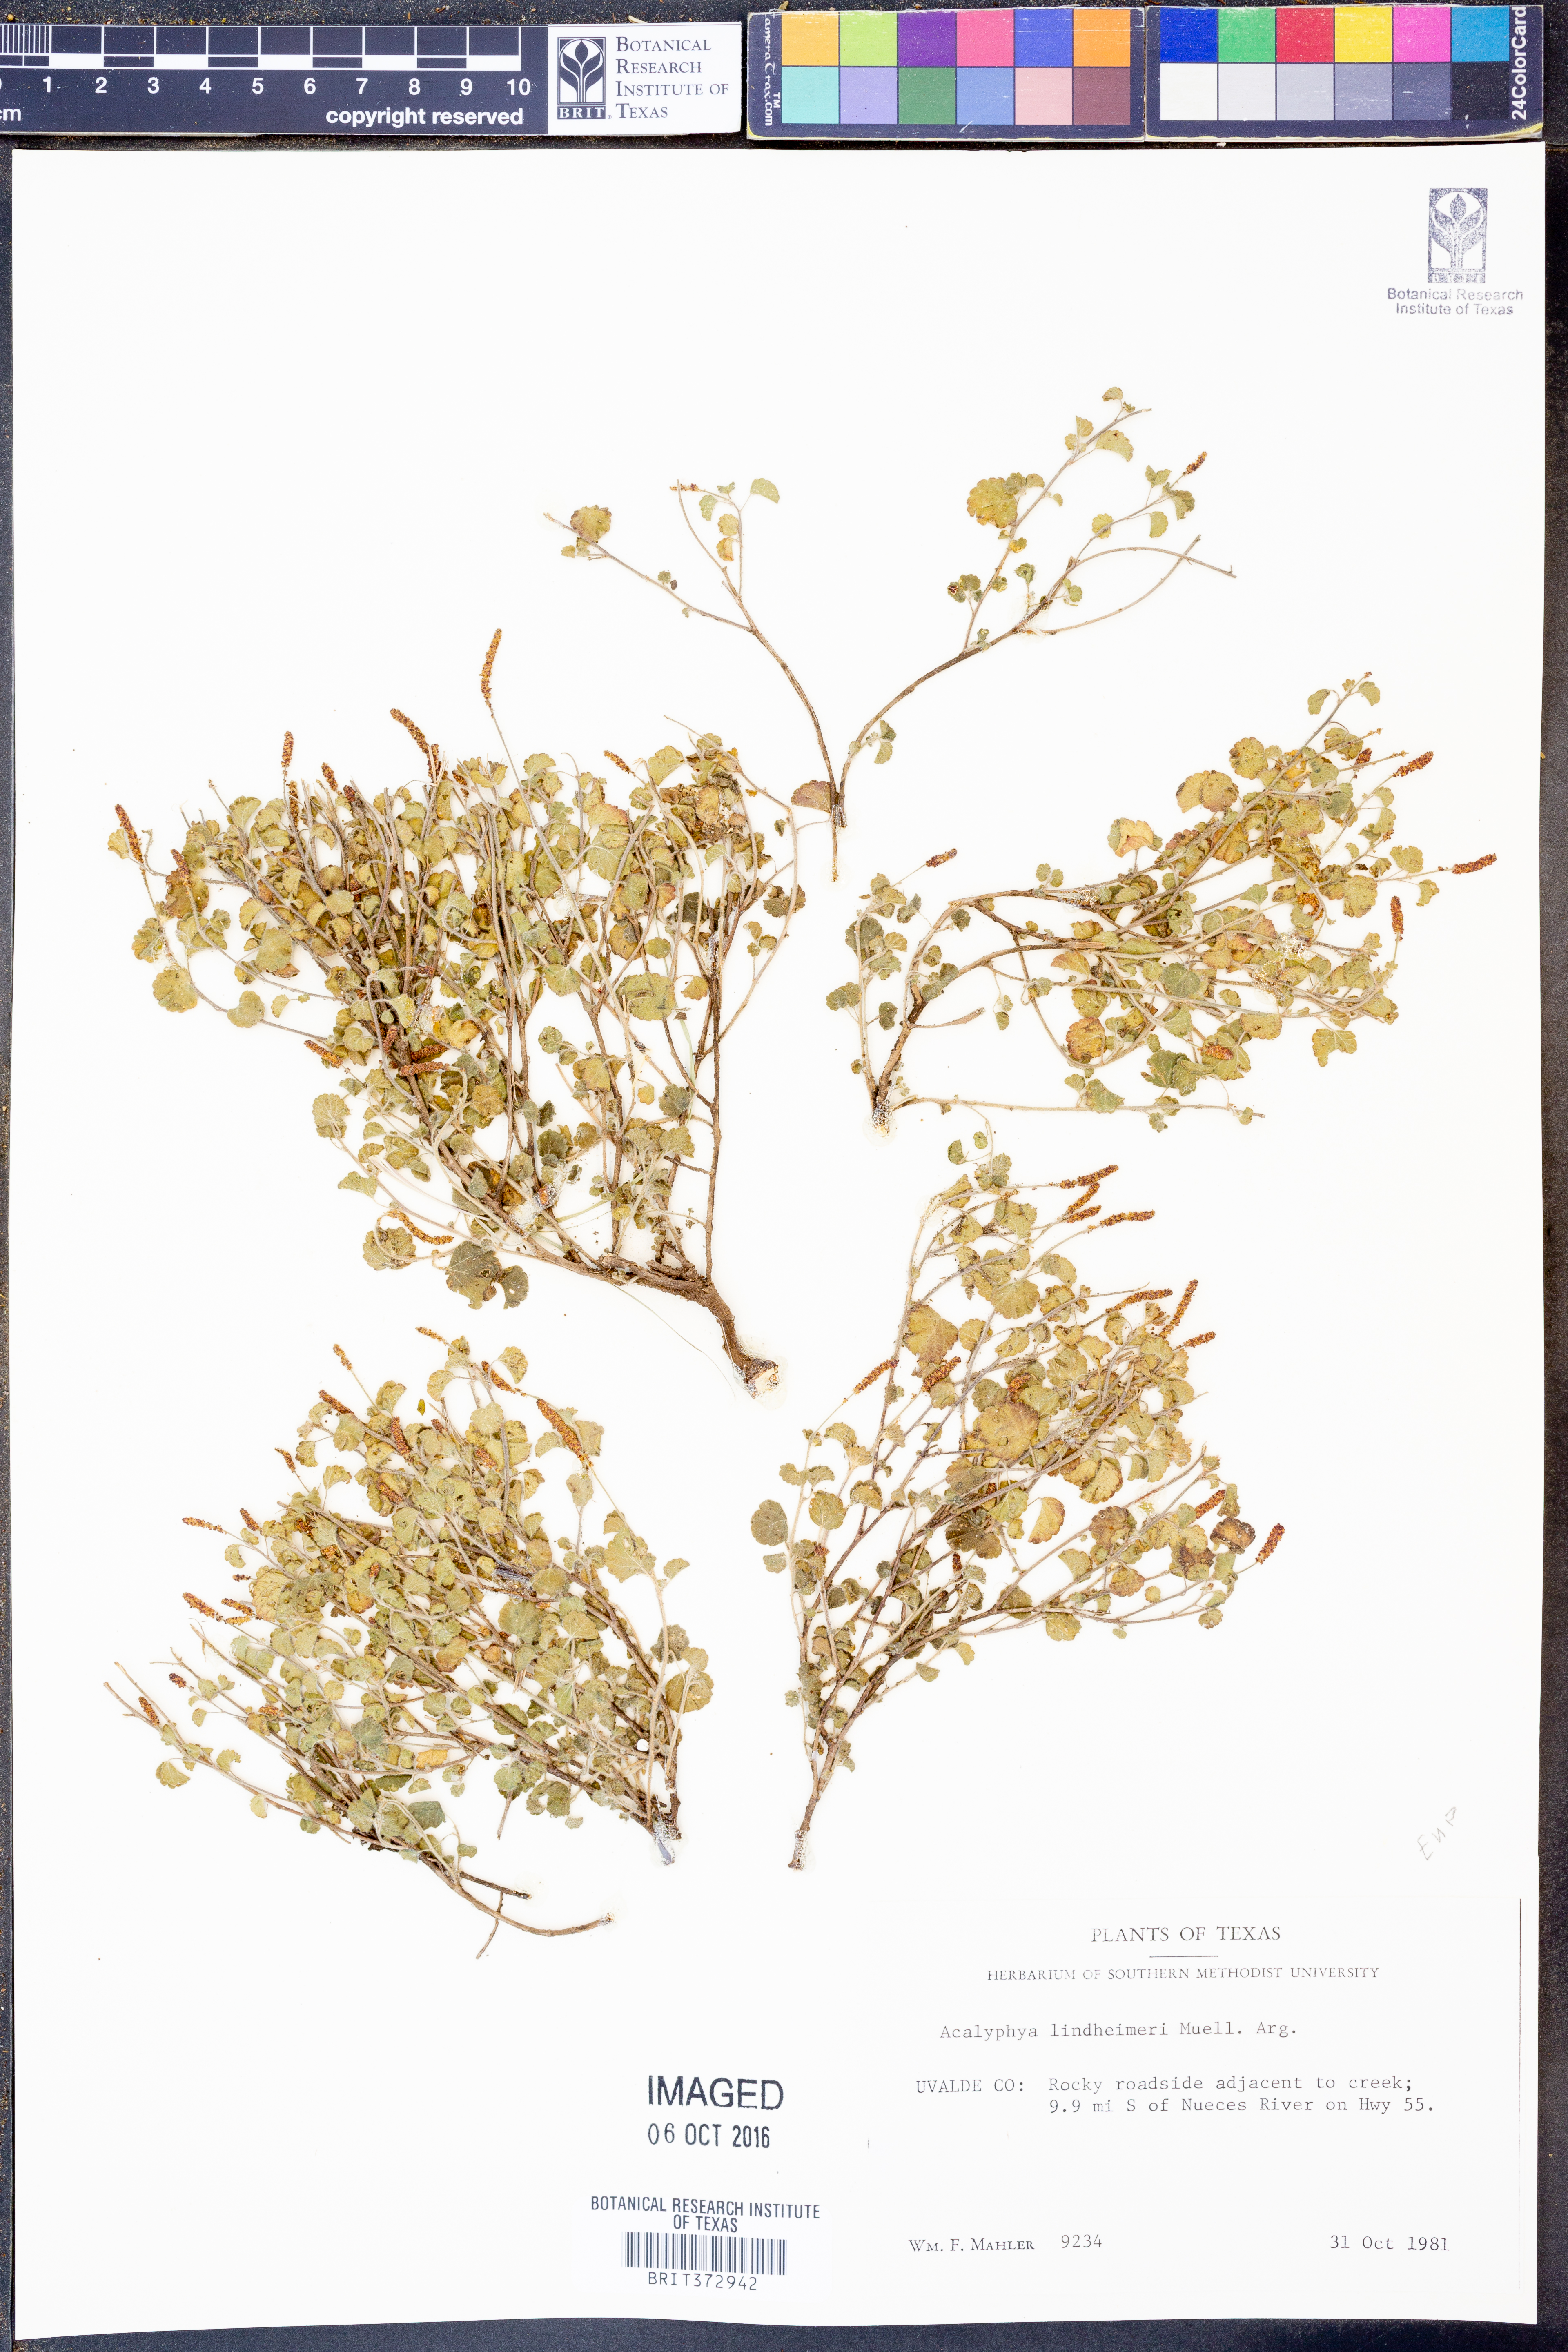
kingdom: Plantae
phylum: Tracheophyta
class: Magnoliopsida
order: Malpighiales
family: Euphorbiaceae
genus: Acalypha
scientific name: Acalypha phleoides
